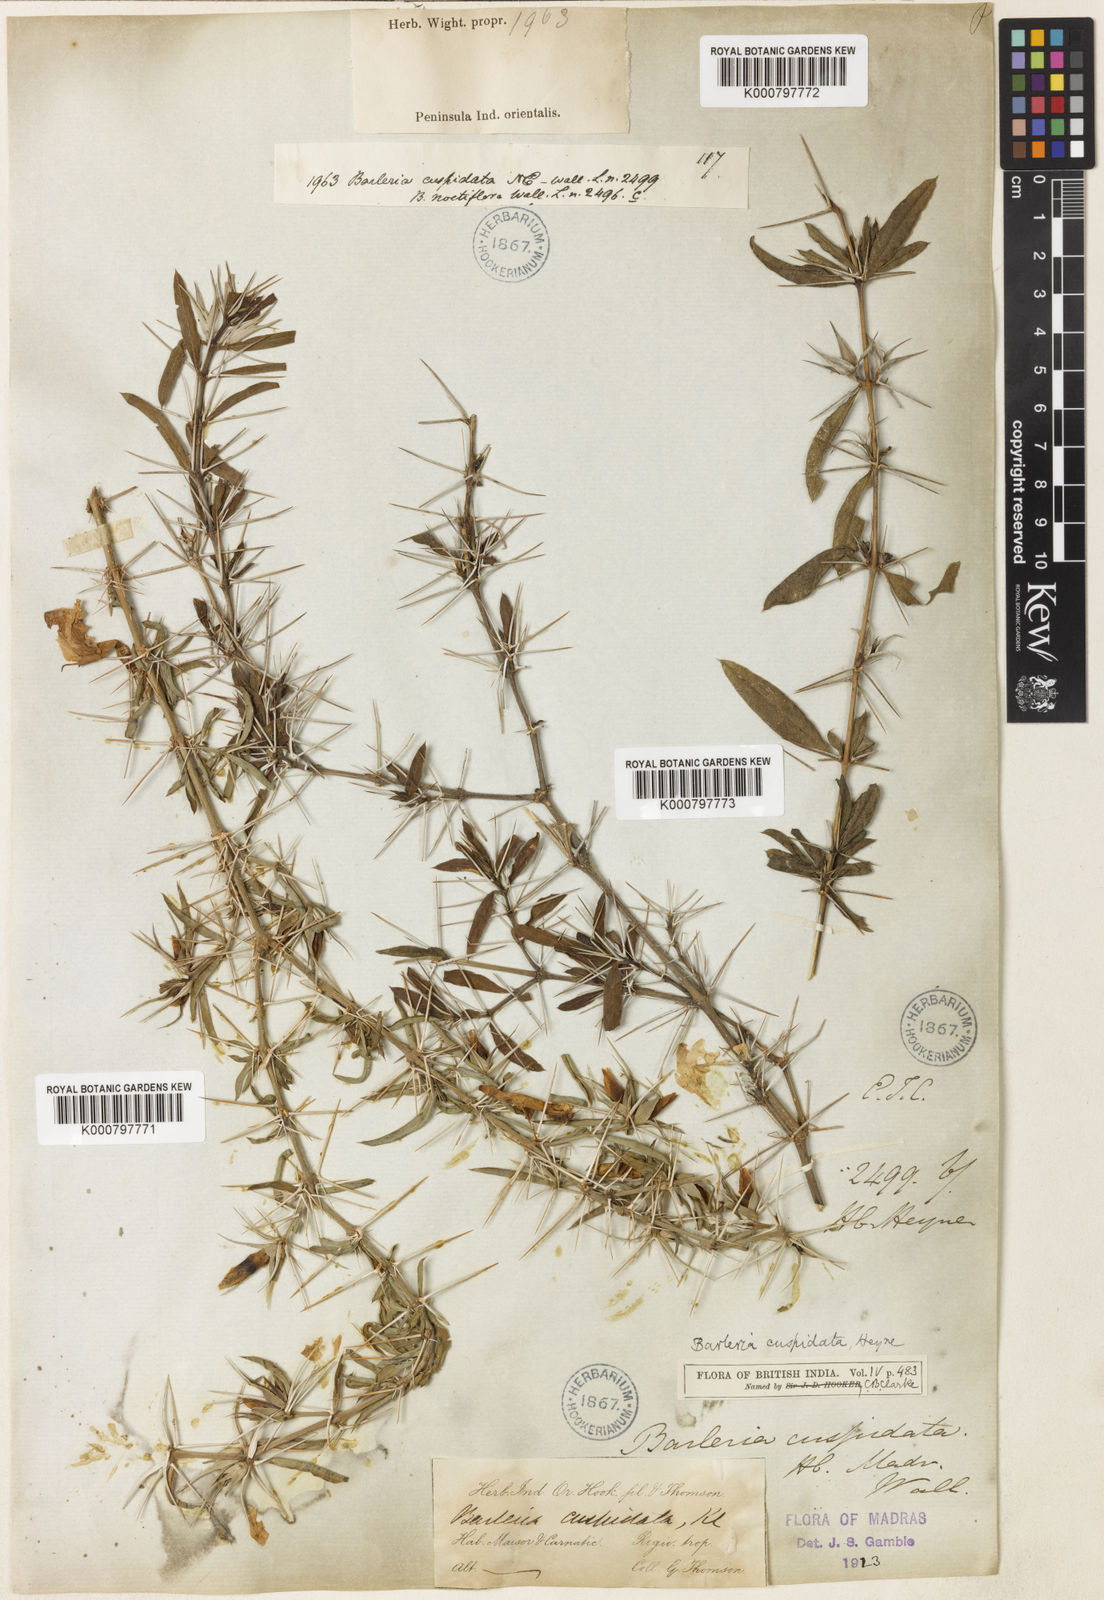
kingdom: Plantae
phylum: Tracheophyta
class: Magnoliopsida
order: Lamiales
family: Acanthaceae
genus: Barleria
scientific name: Barleria cuspidata
